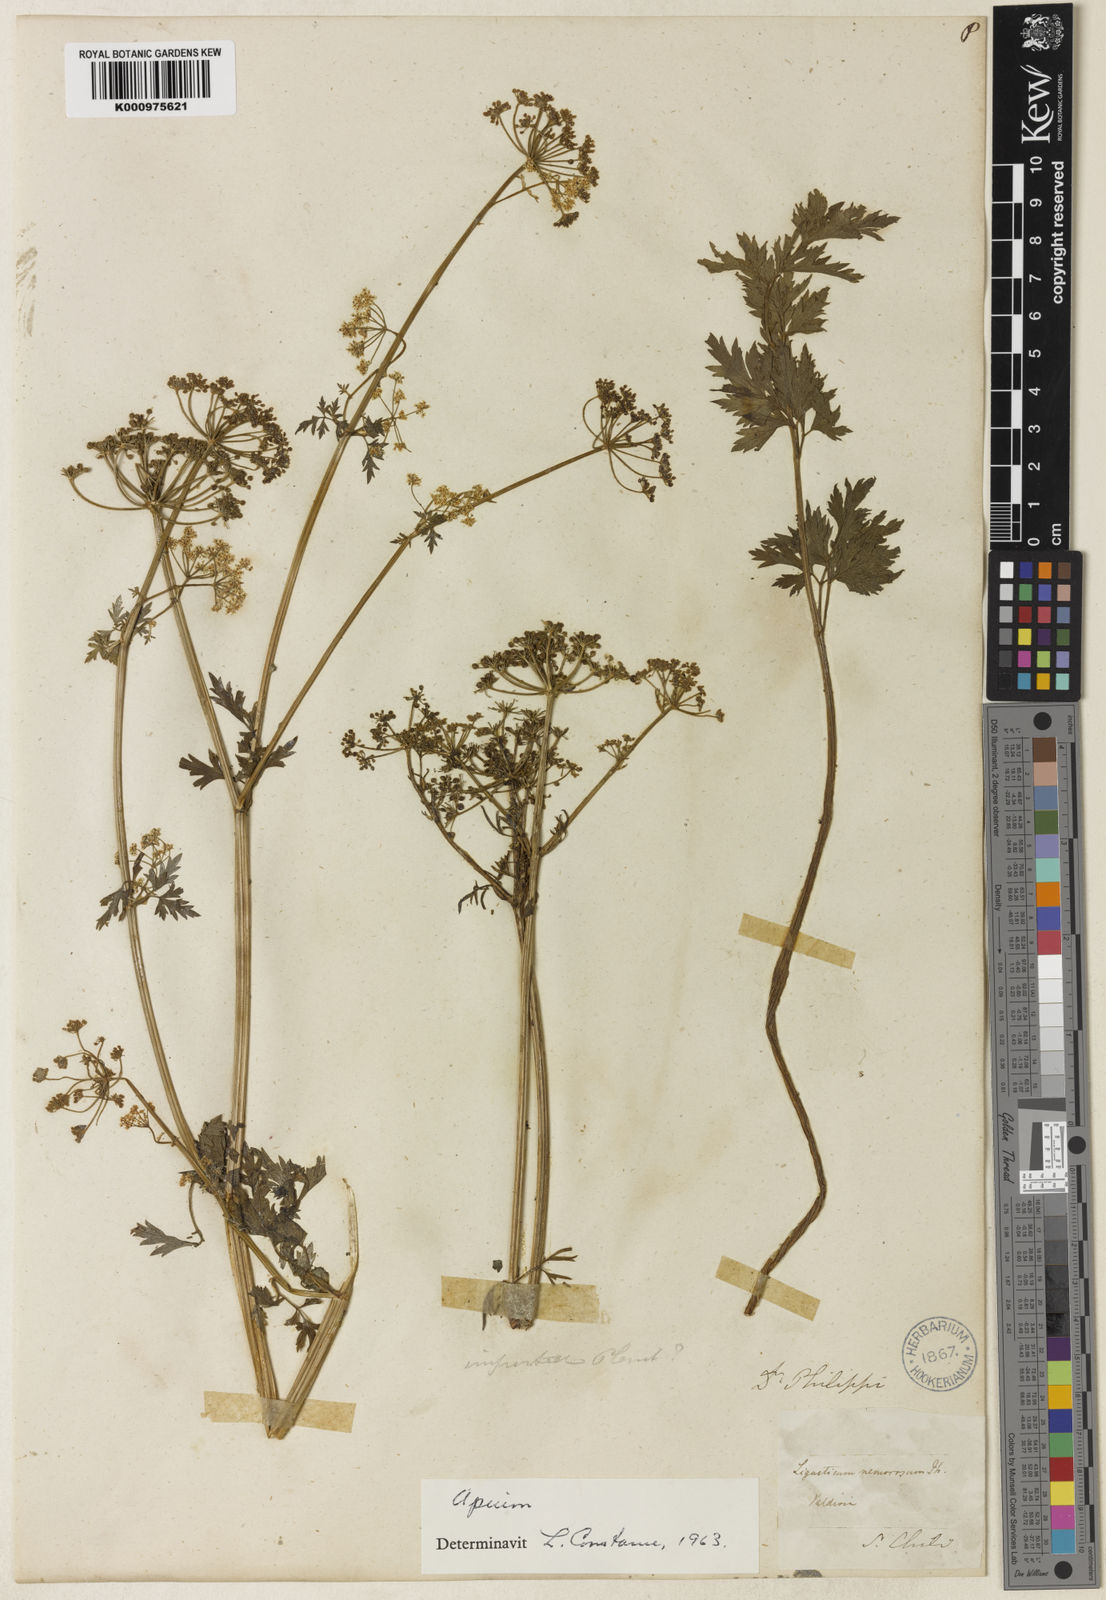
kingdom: Plantae
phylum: Tracheophyta
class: Magnoliopsida
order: Apiales
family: Apiaceae
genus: Apium
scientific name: Apium panul
